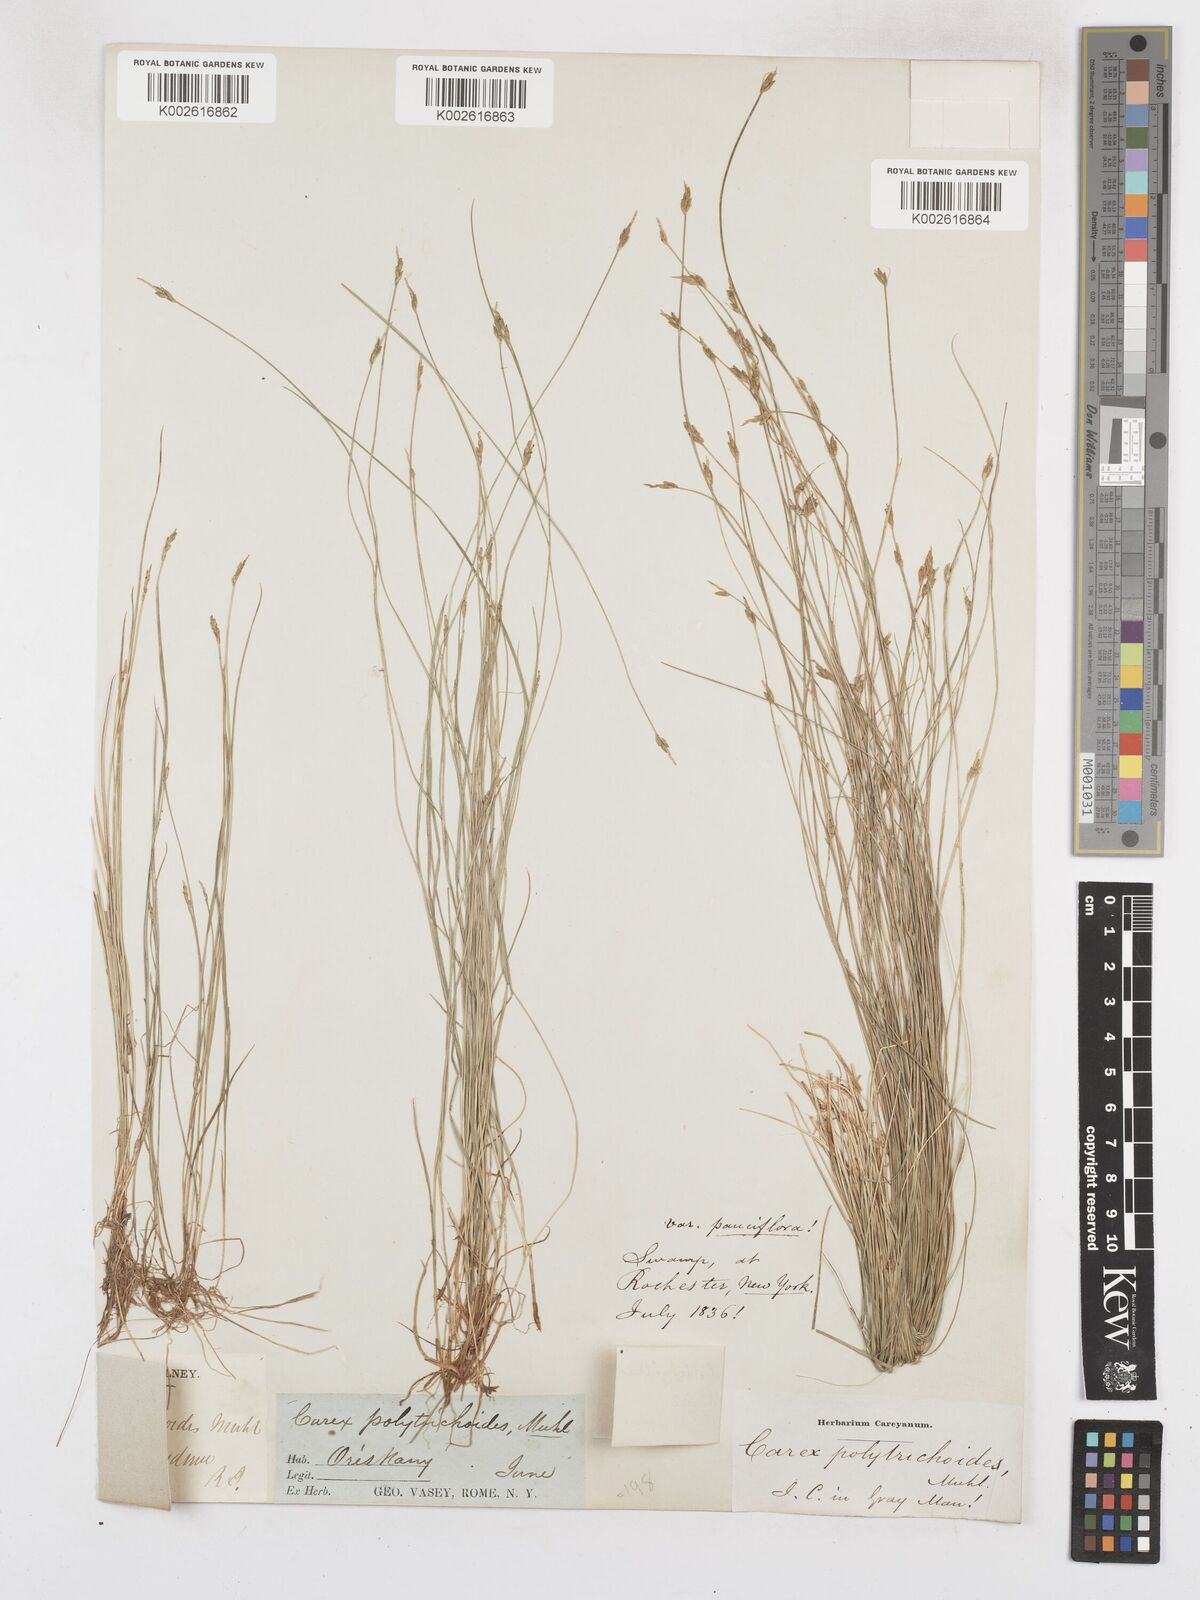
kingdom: Plantae
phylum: Tracheophyta
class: Liliopsida
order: Poales
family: Cyperaceae
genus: Carex
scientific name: Carex leptalea
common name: Bristly-stalked sedge
